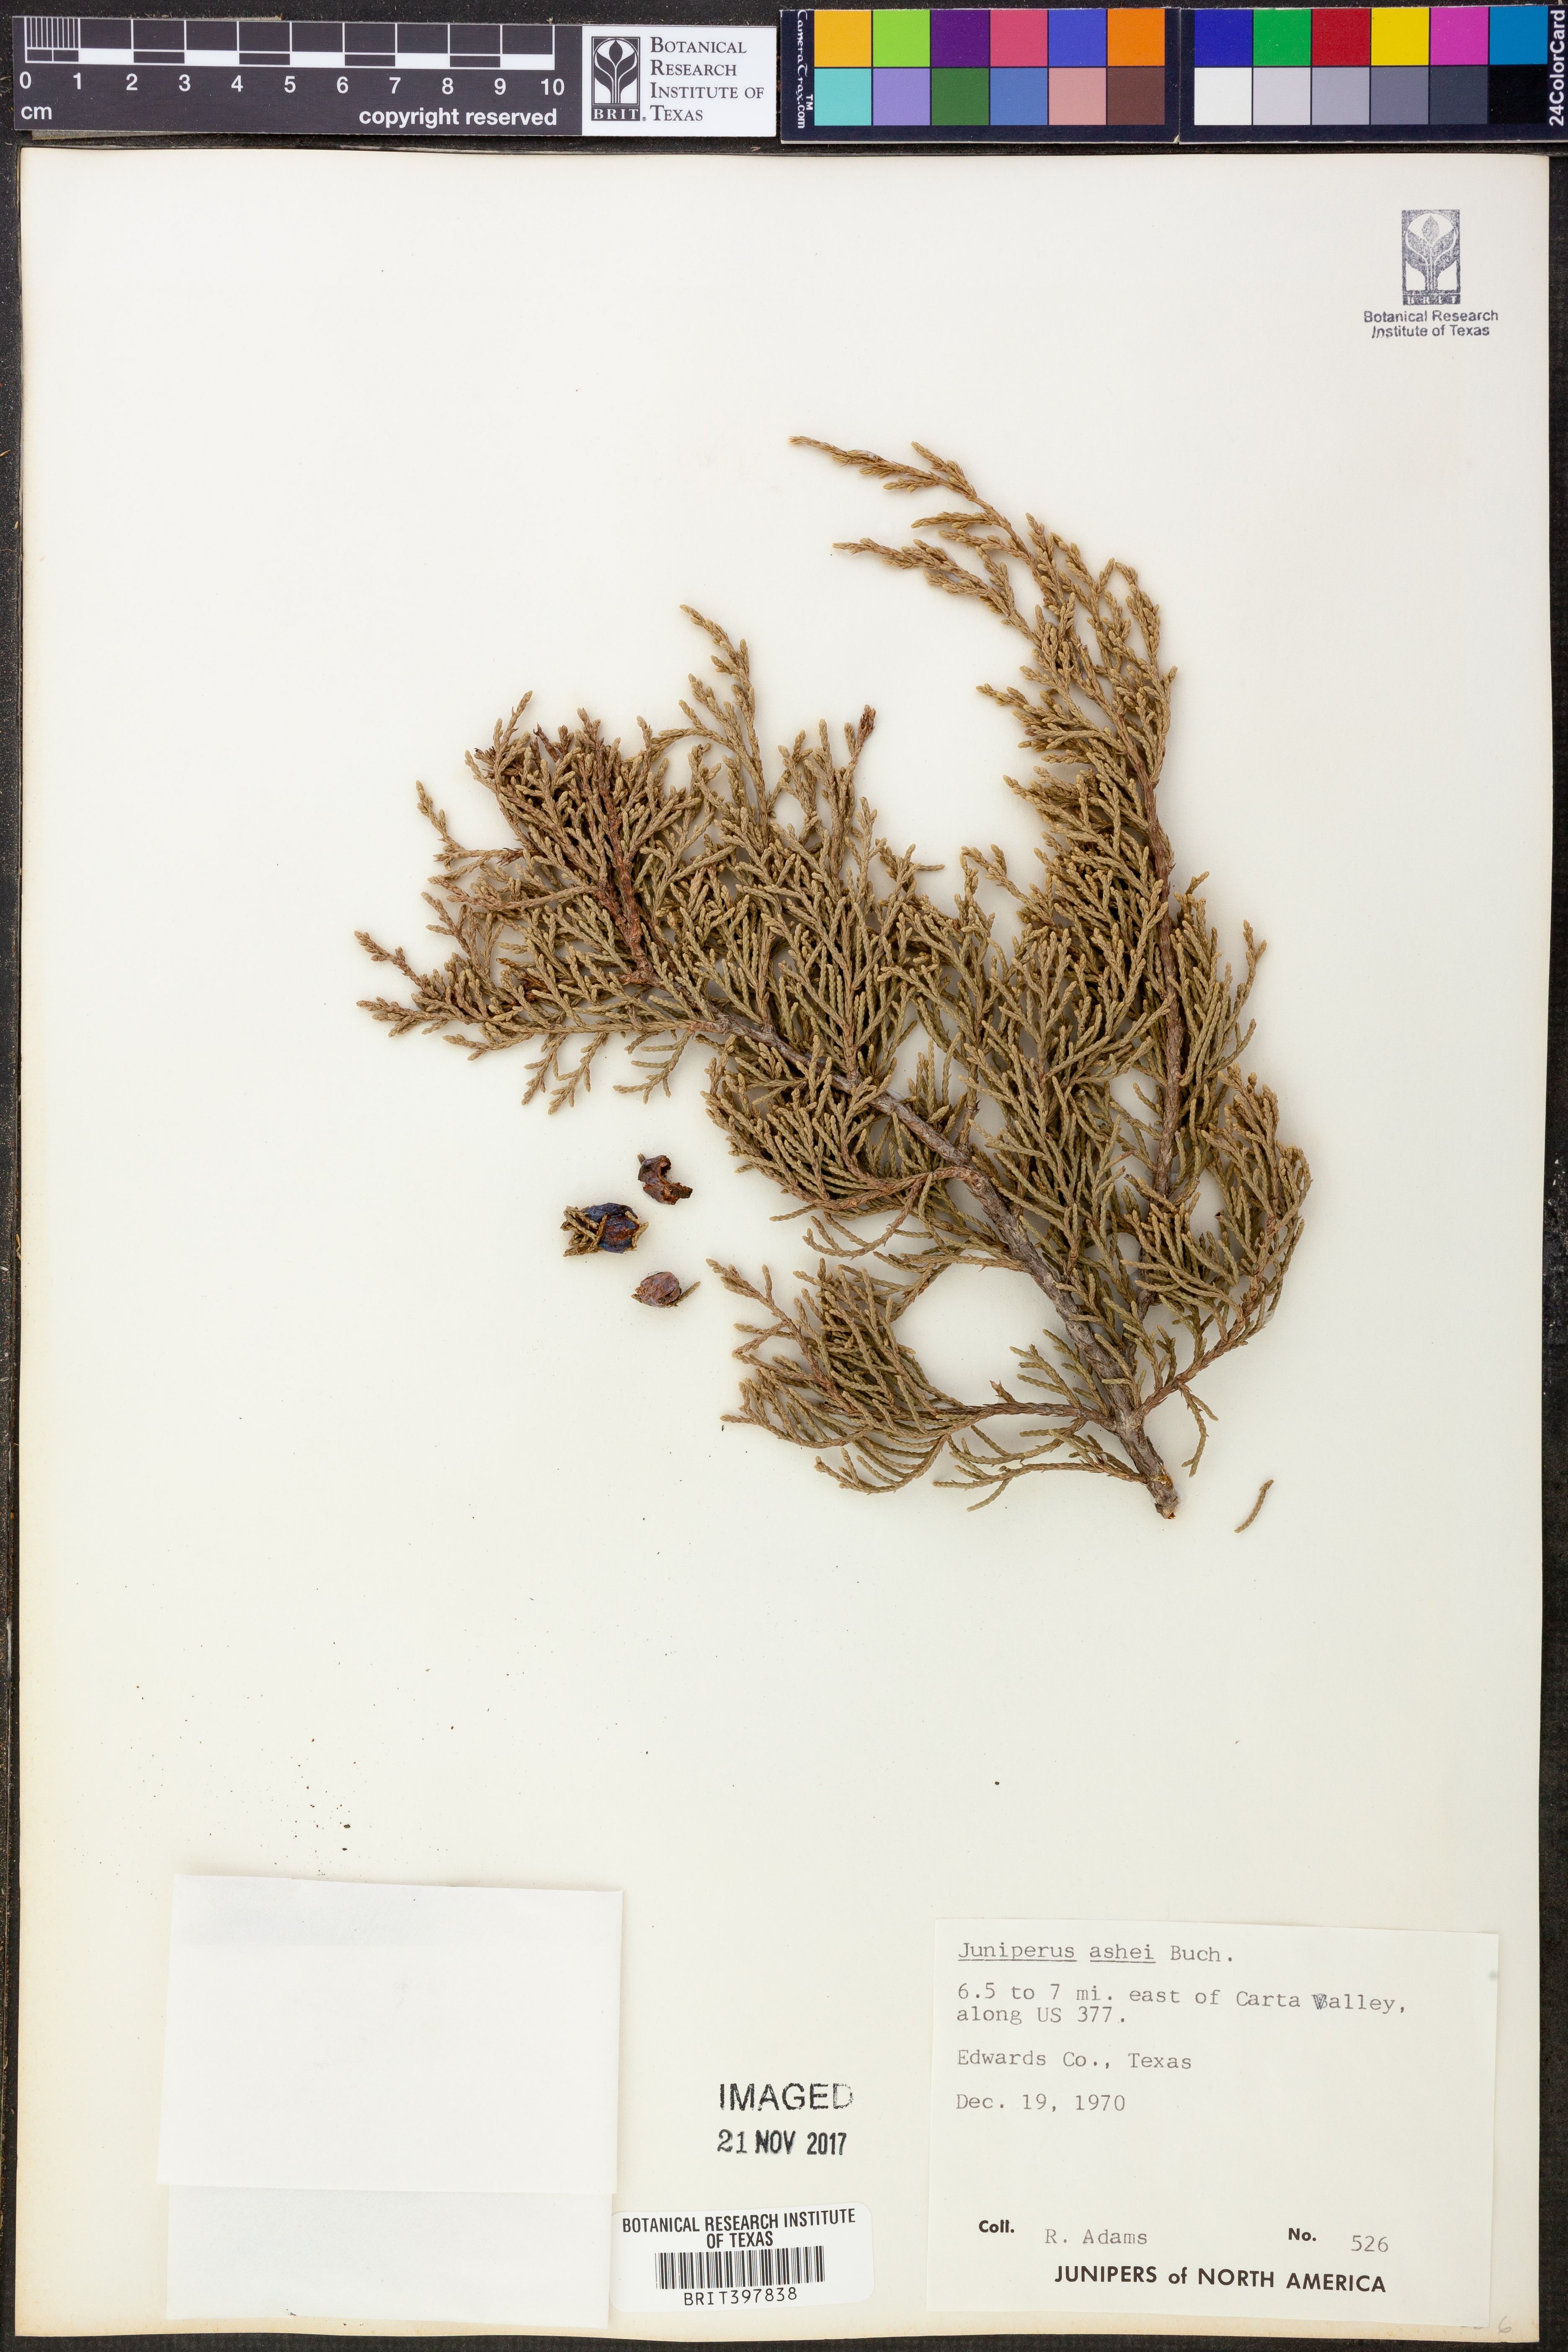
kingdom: Plantae
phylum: Tracheophyta
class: Pinopsida
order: Pinales
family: Cupressaceae
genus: Juniperus
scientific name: Juniperus ashei
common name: Mexican juniper
